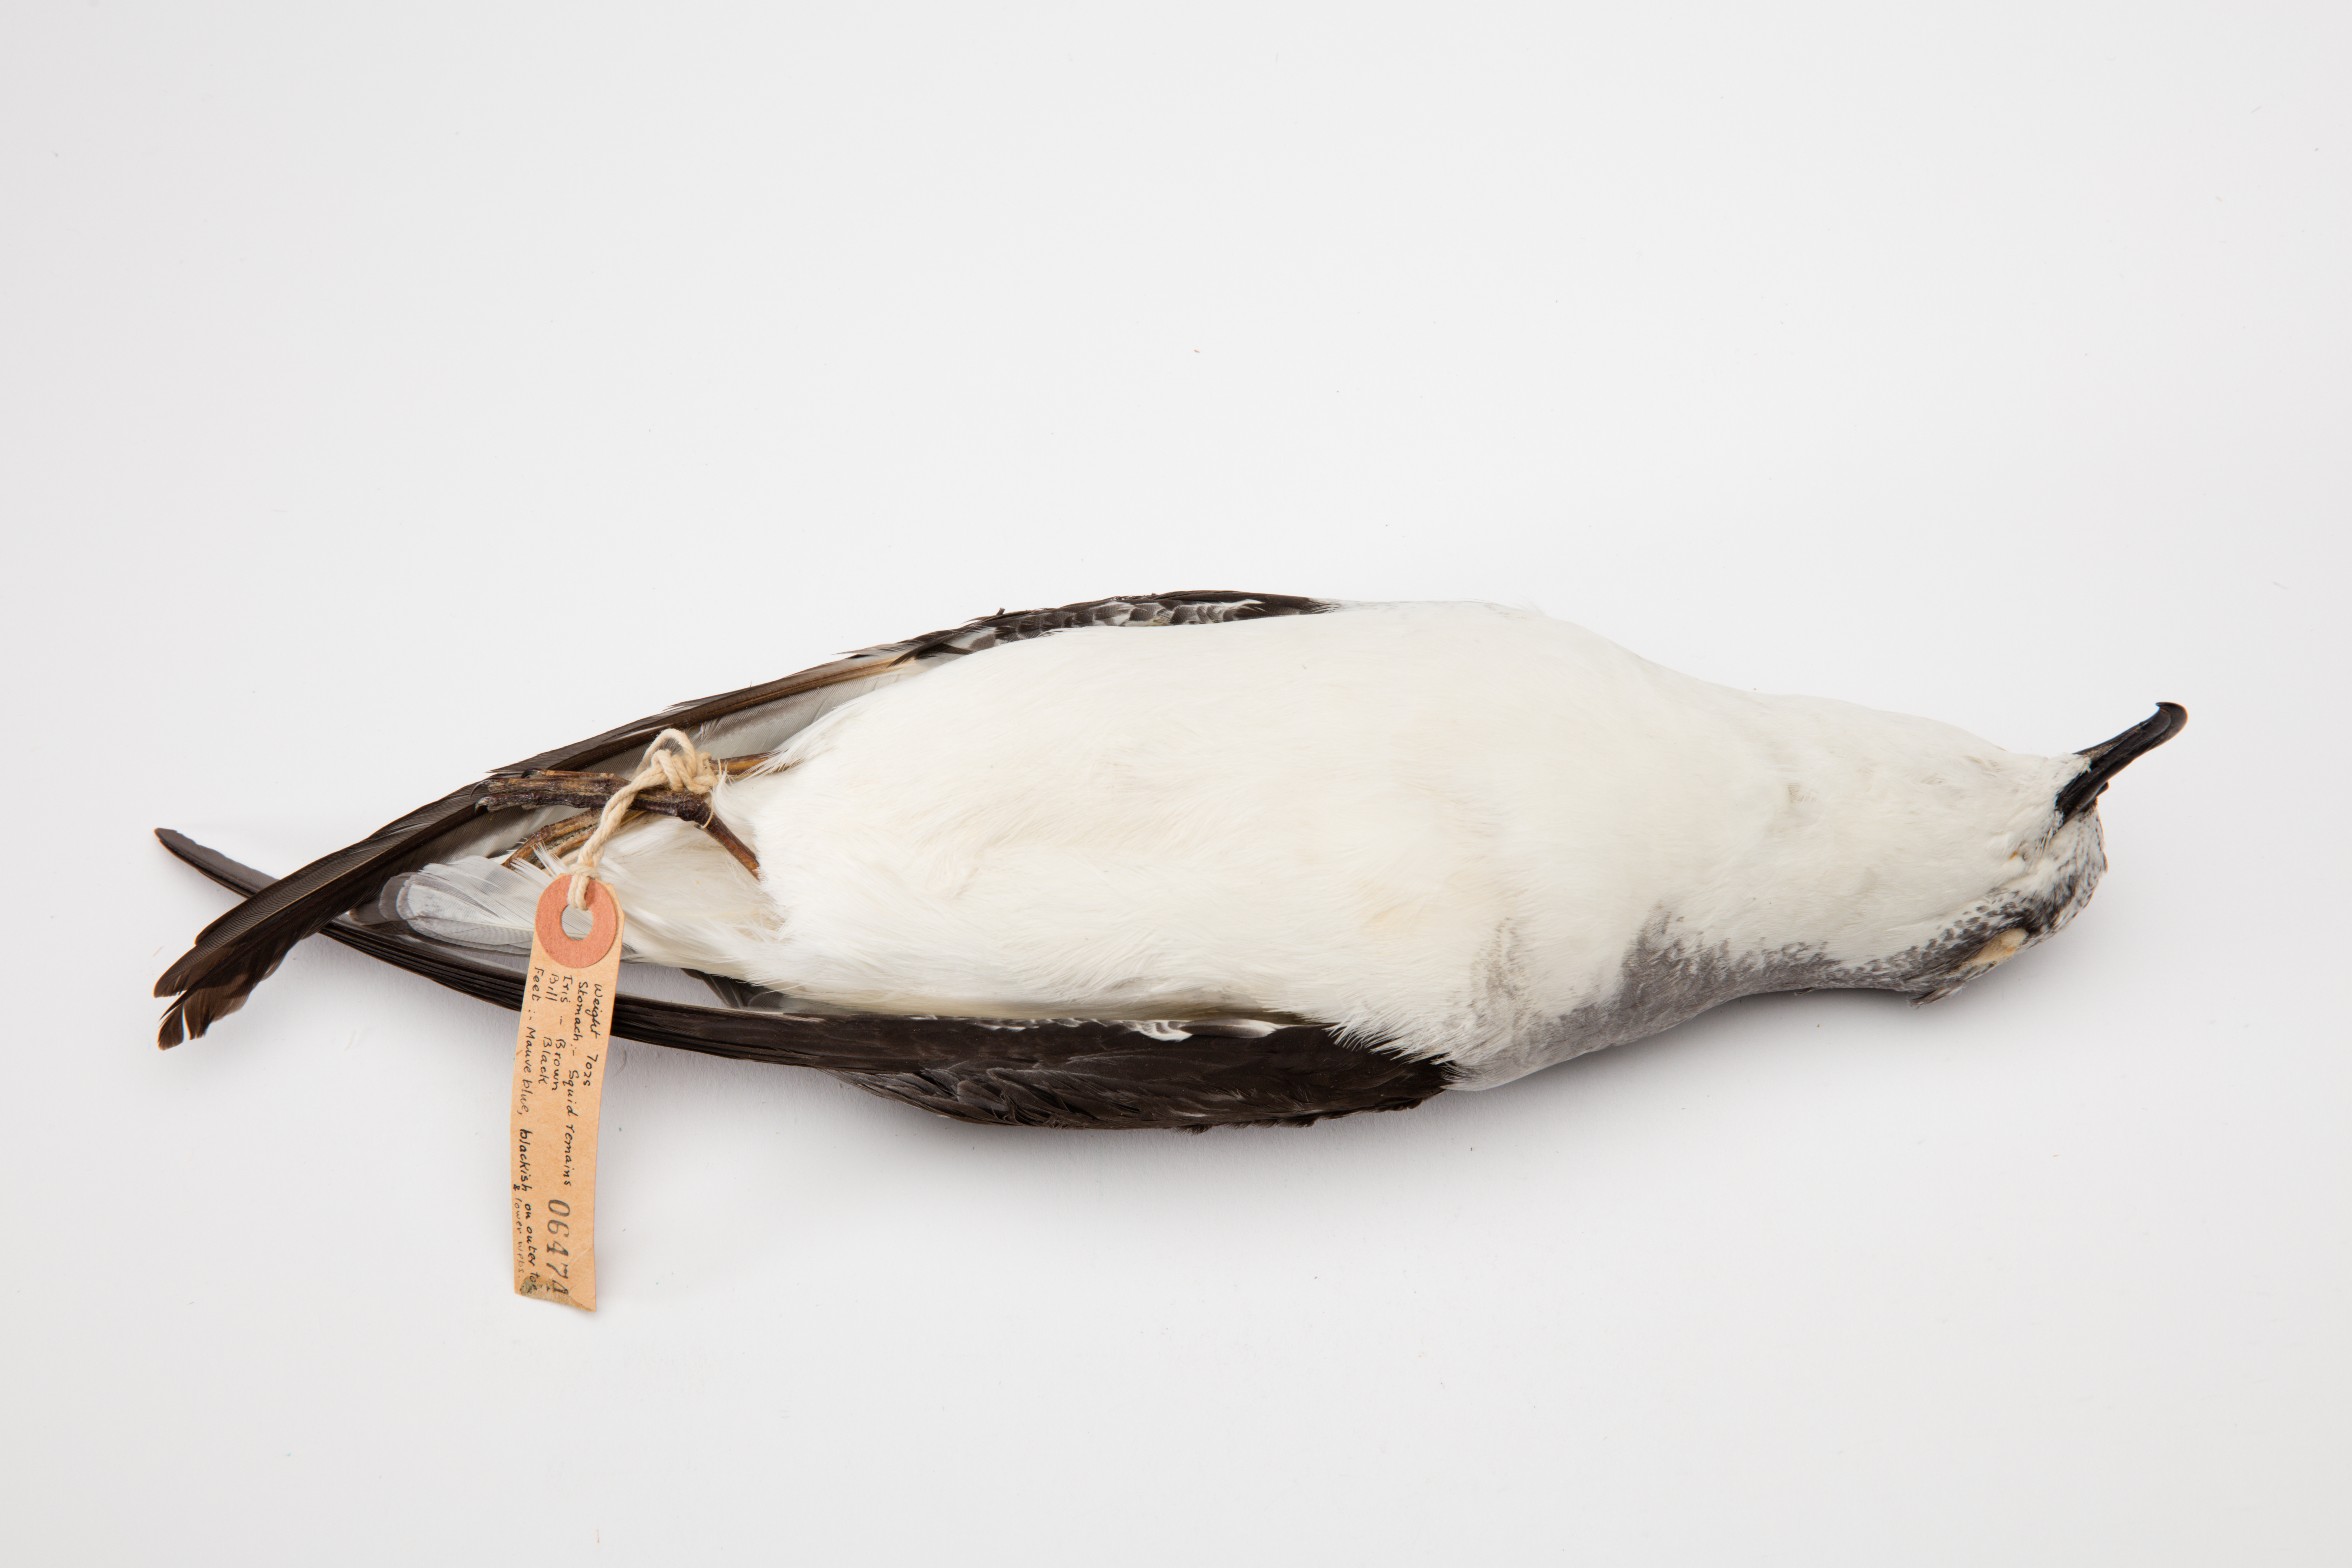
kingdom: Animalia
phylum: Chordata
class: Aves
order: Procellariiformes
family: Procellariidae
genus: Pterodroma
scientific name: Pterodroma cookii
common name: Cook's petrel
